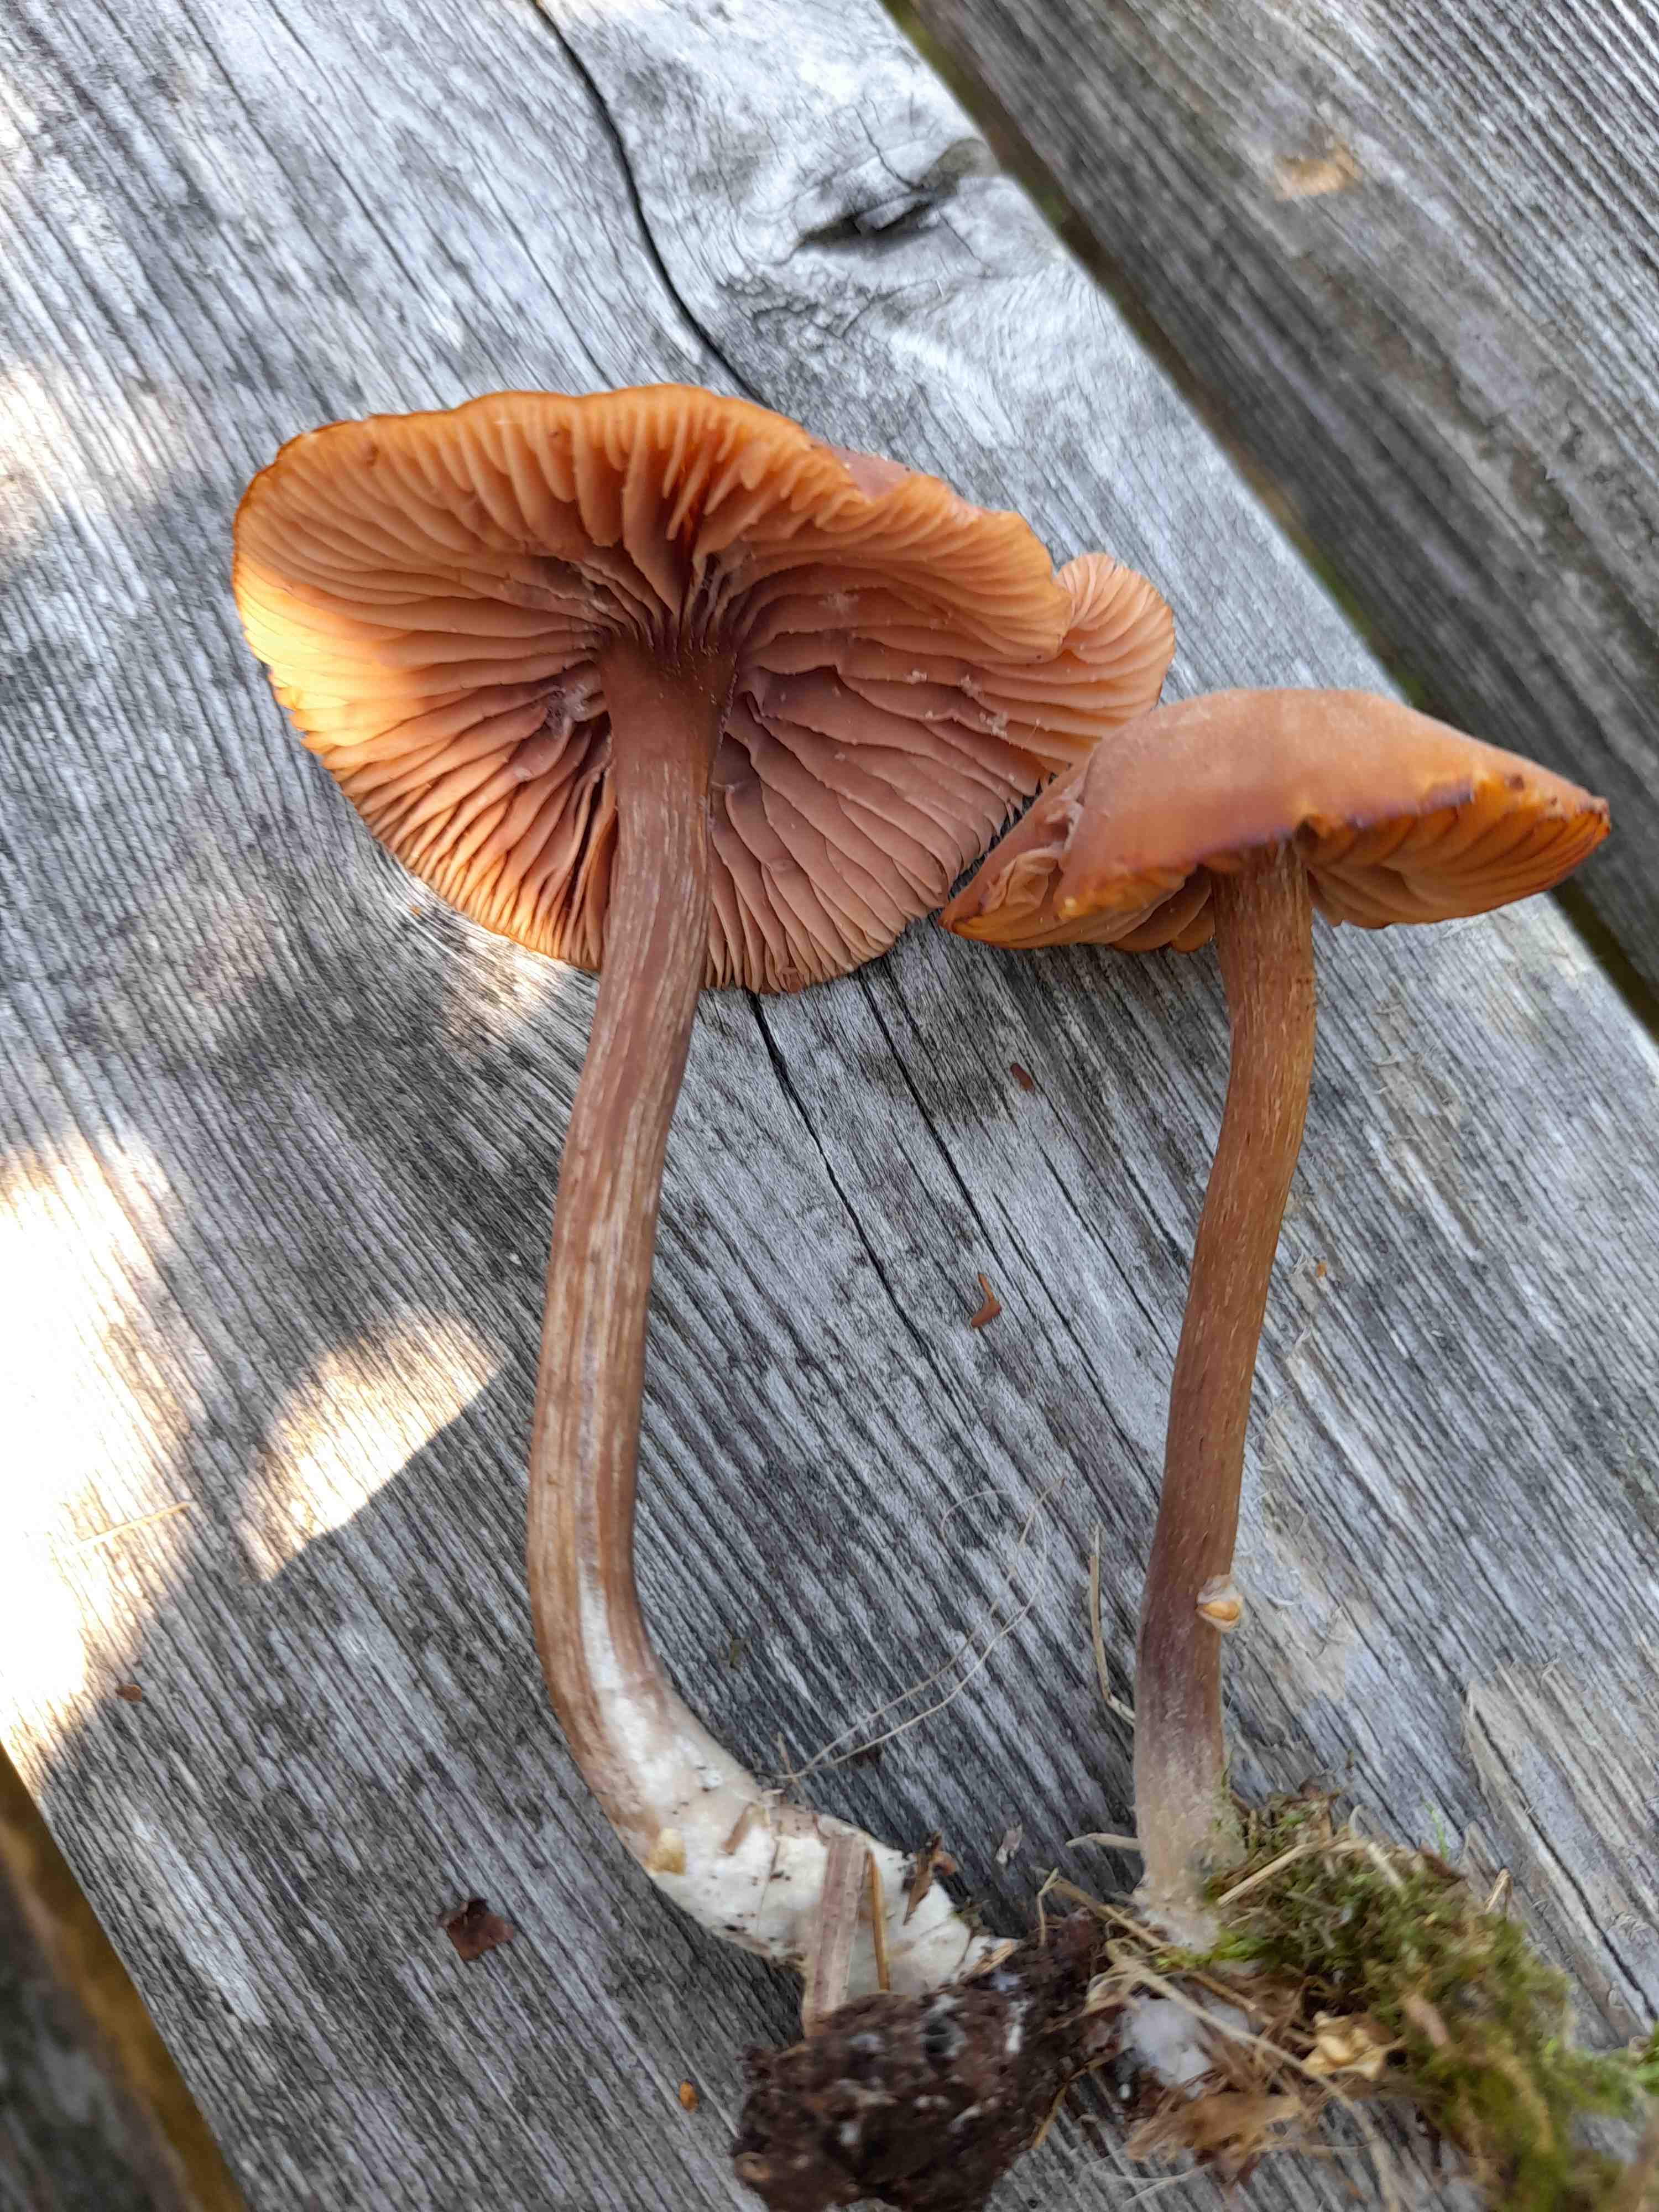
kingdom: Fungi
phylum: Basidiomycota
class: Agaricomycetes
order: Agaricales
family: Hydnangiaceae
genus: Laccaria
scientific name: Laccaria proxima
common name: stor ametysthat
